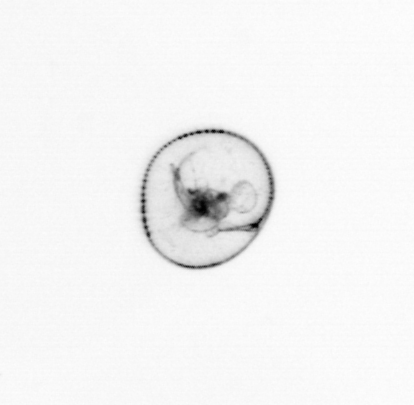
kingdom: Chromista
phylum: Myzozoa
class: Dinophyceae
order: Noctilucales
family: Noctilucaceae
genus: Noctiluca
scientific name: Noctiluca scintillans
